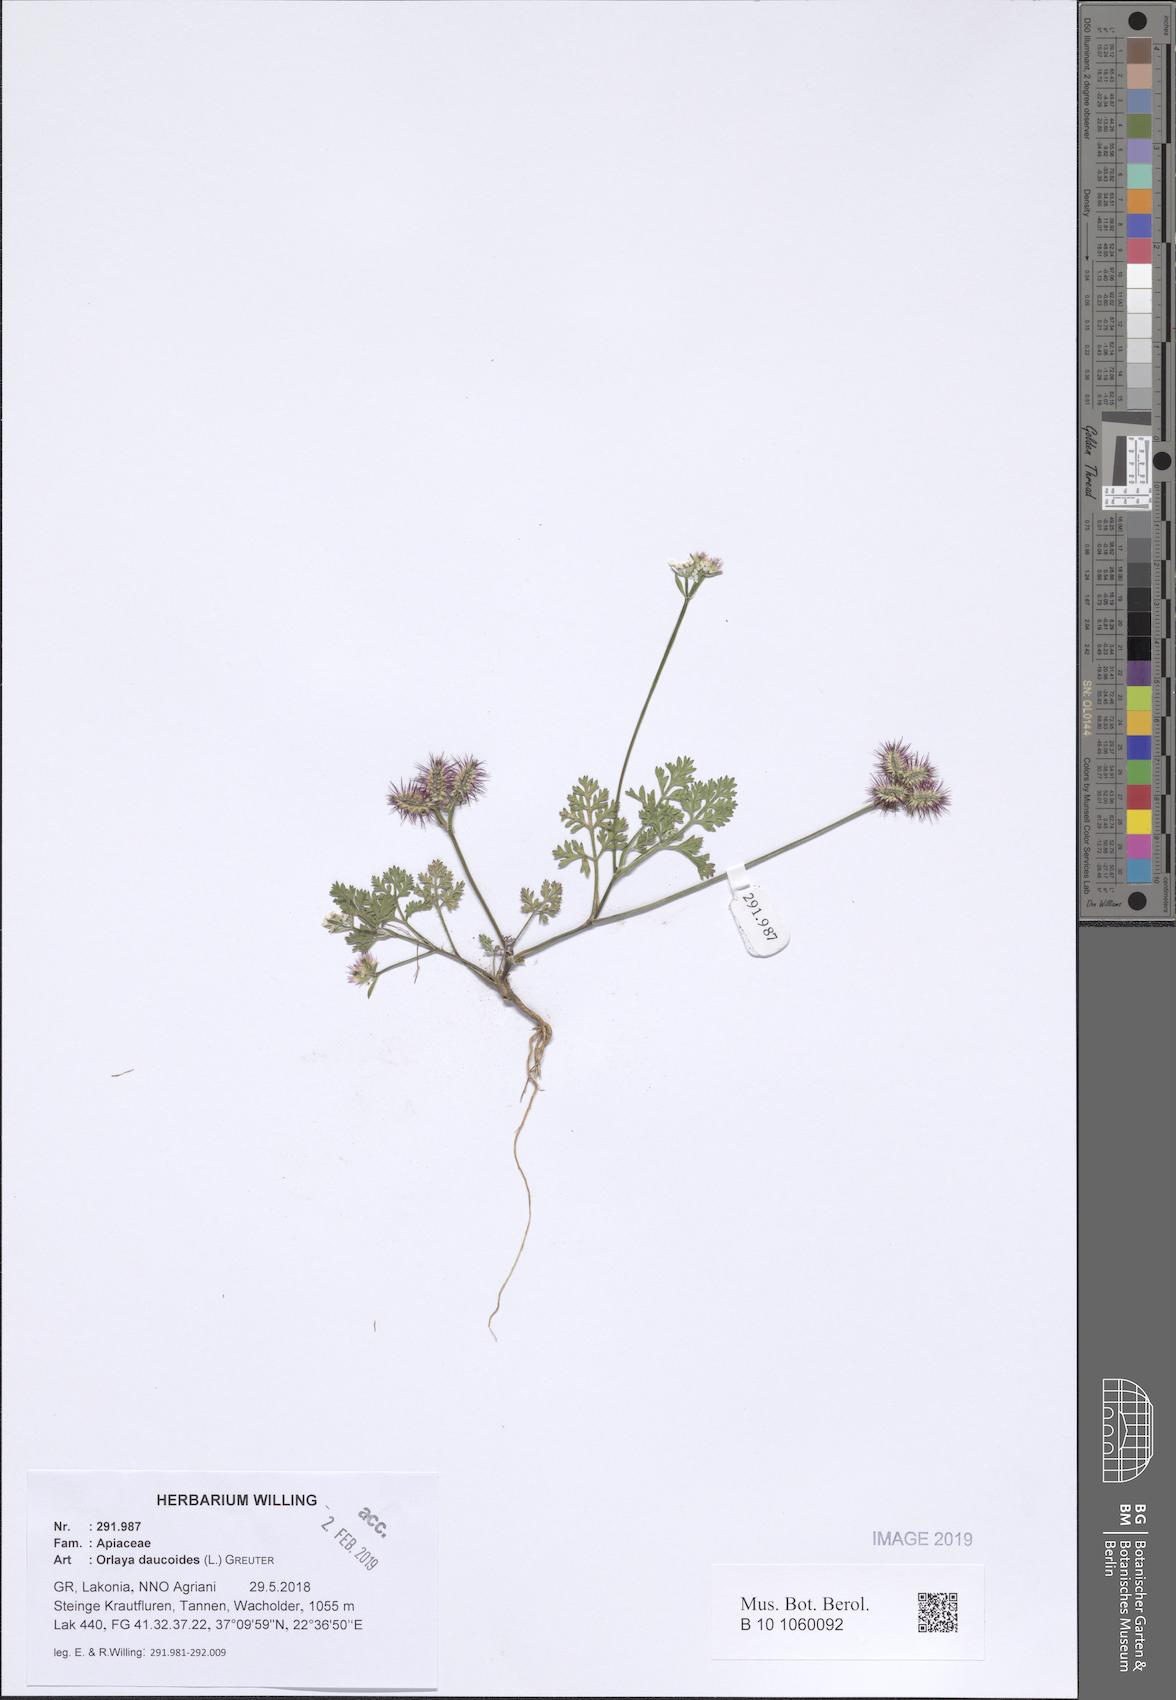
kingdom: Plantae
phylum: Tracheophyta
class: Magnoliopsida
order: Apiales
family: Apiaceae
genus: Orlaya
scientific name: Orlaya daucoides
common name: Flat-fruit orlaya
